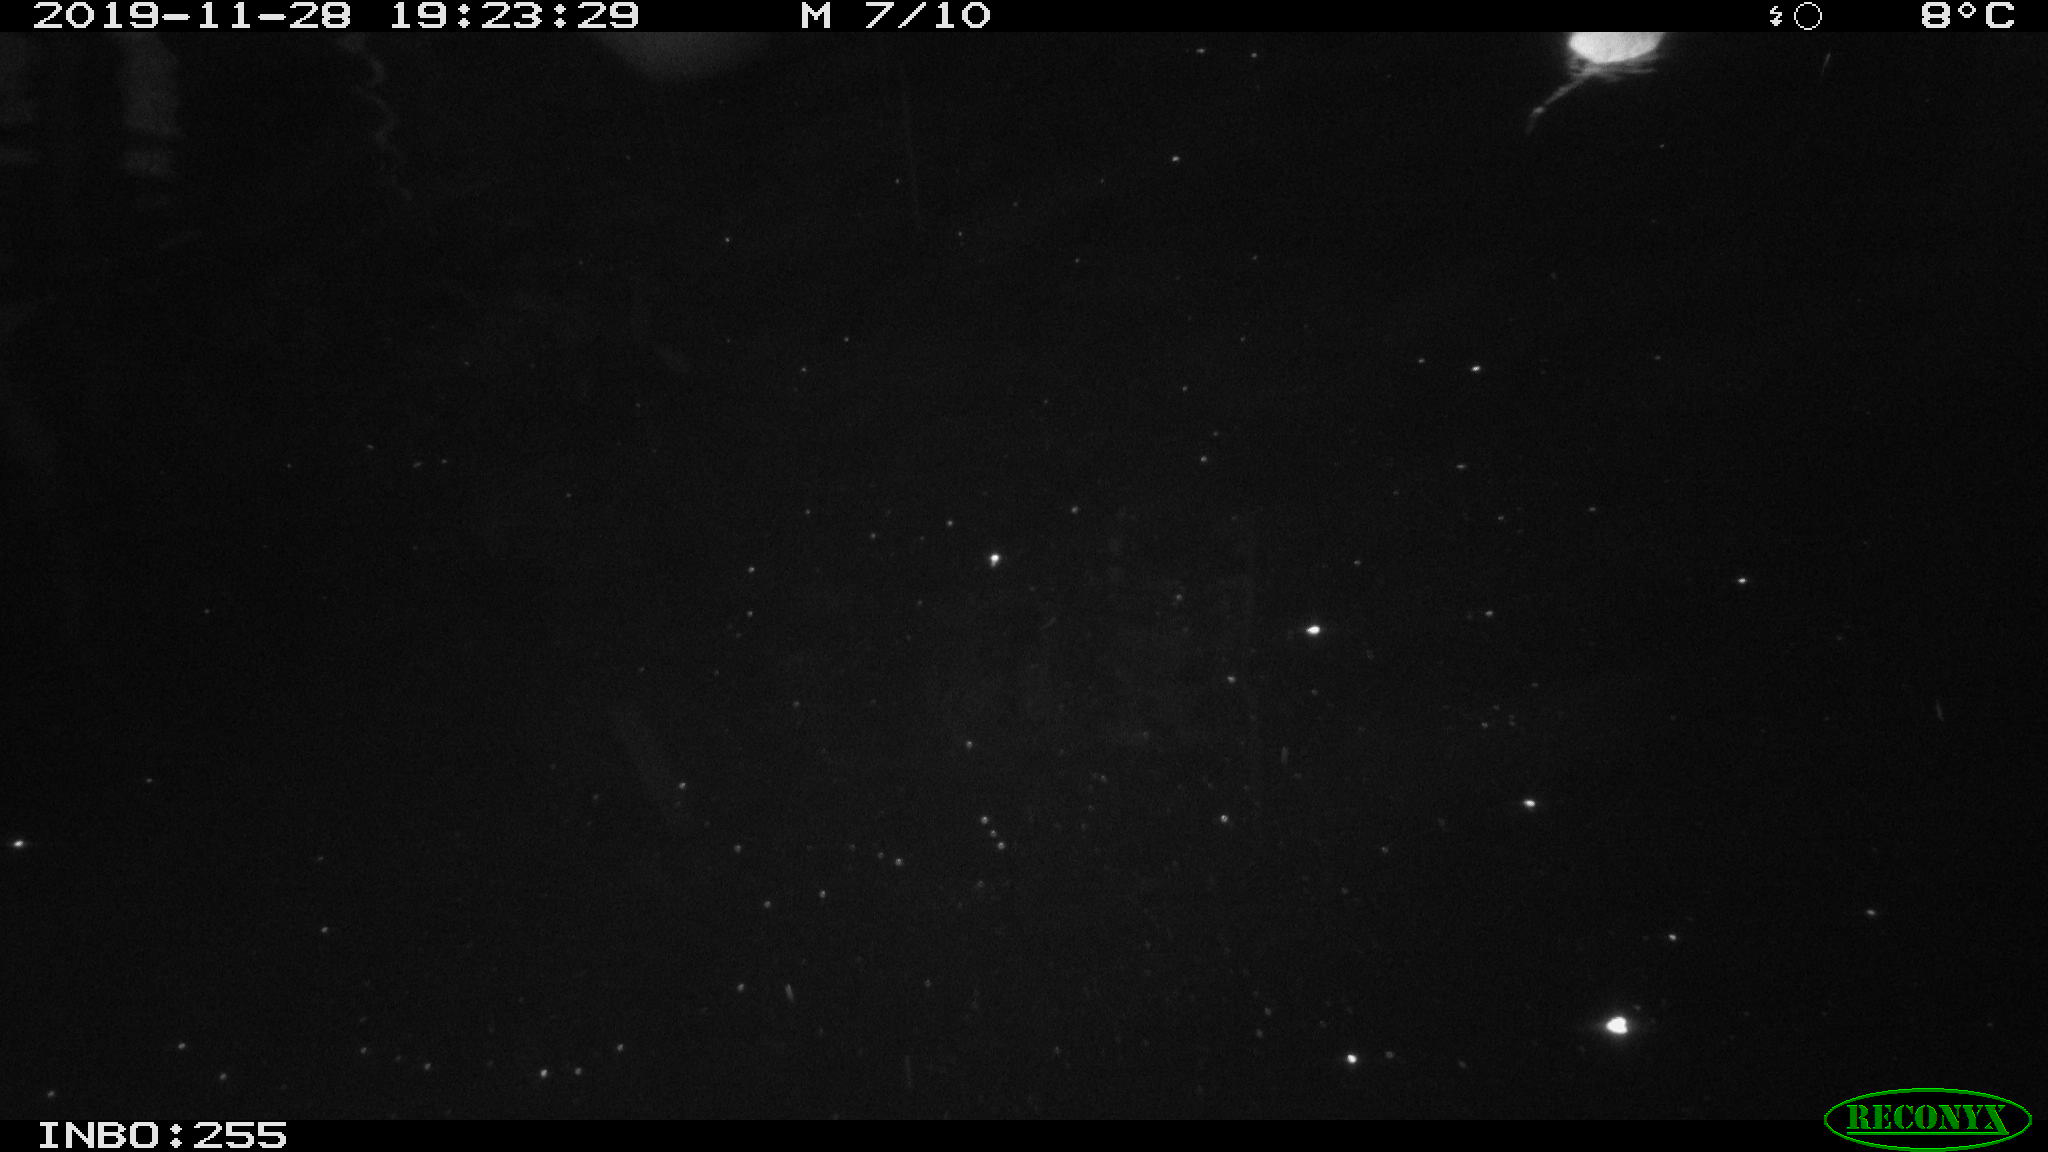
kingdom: Animalia
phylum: Chordata
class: Mammalia
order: Rodentia
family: Muridae
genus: Rattus
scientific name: Rattus norvegicus
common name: Brown rat
